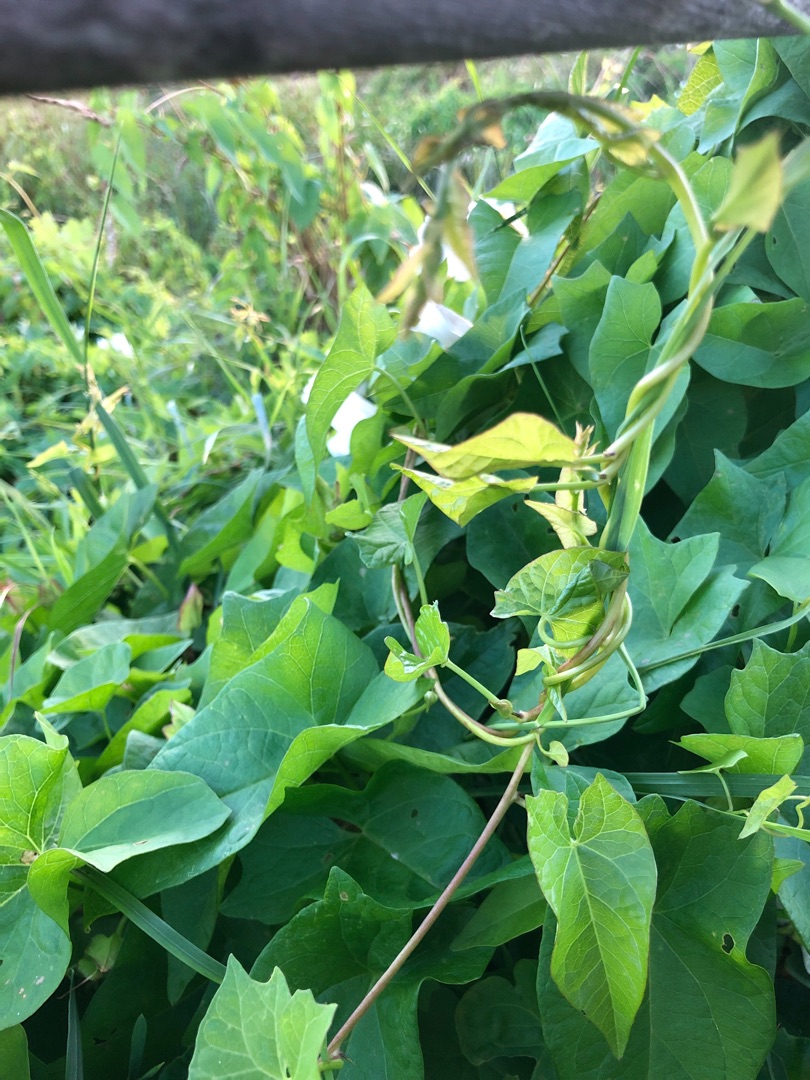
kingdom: Plantae
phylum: Tracheophyta
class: Magnoliopsida
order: Solanales
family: Convolvulaceae
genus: Calystegia
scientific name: Calystegia sepium
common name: Gærde-snerle
